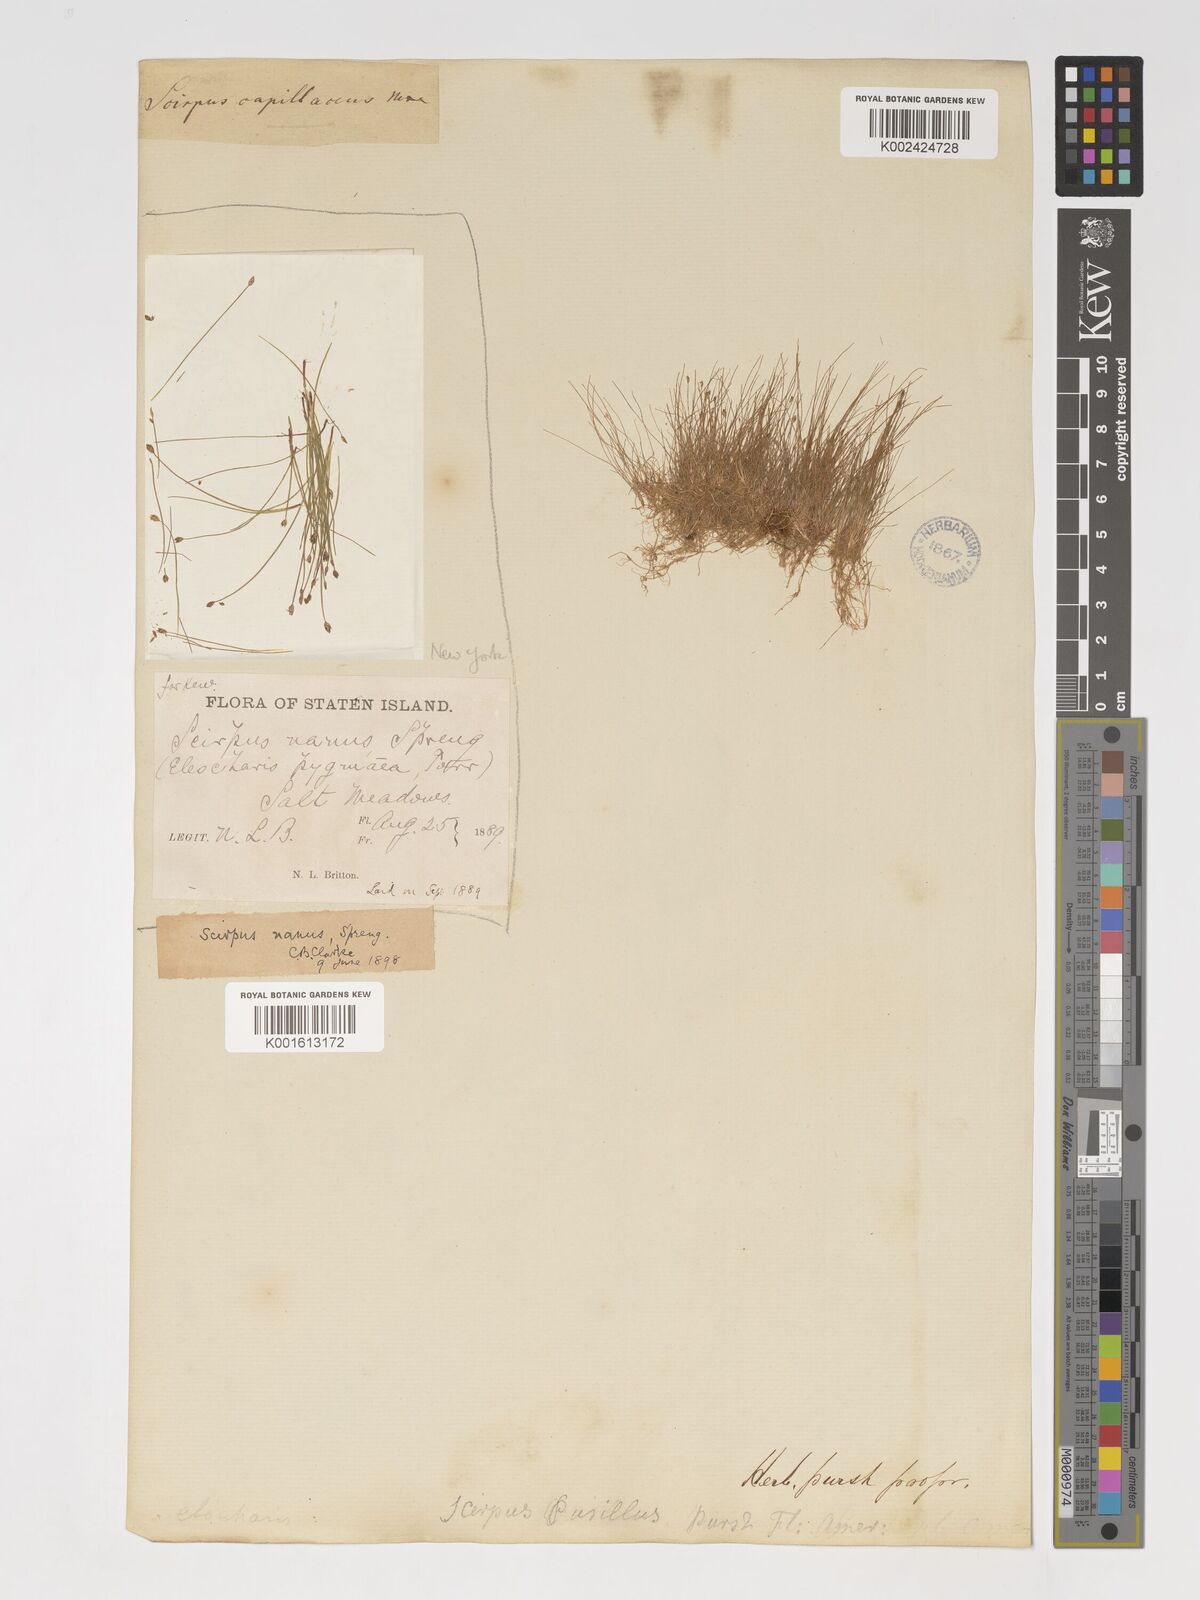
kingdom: Plantae
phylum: Tracheophyta
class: Liliopsida
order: Poales
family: Cyperaceae
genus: Eleocharis
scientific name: Eleocharis parvula
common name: Dwarf spike-rush
